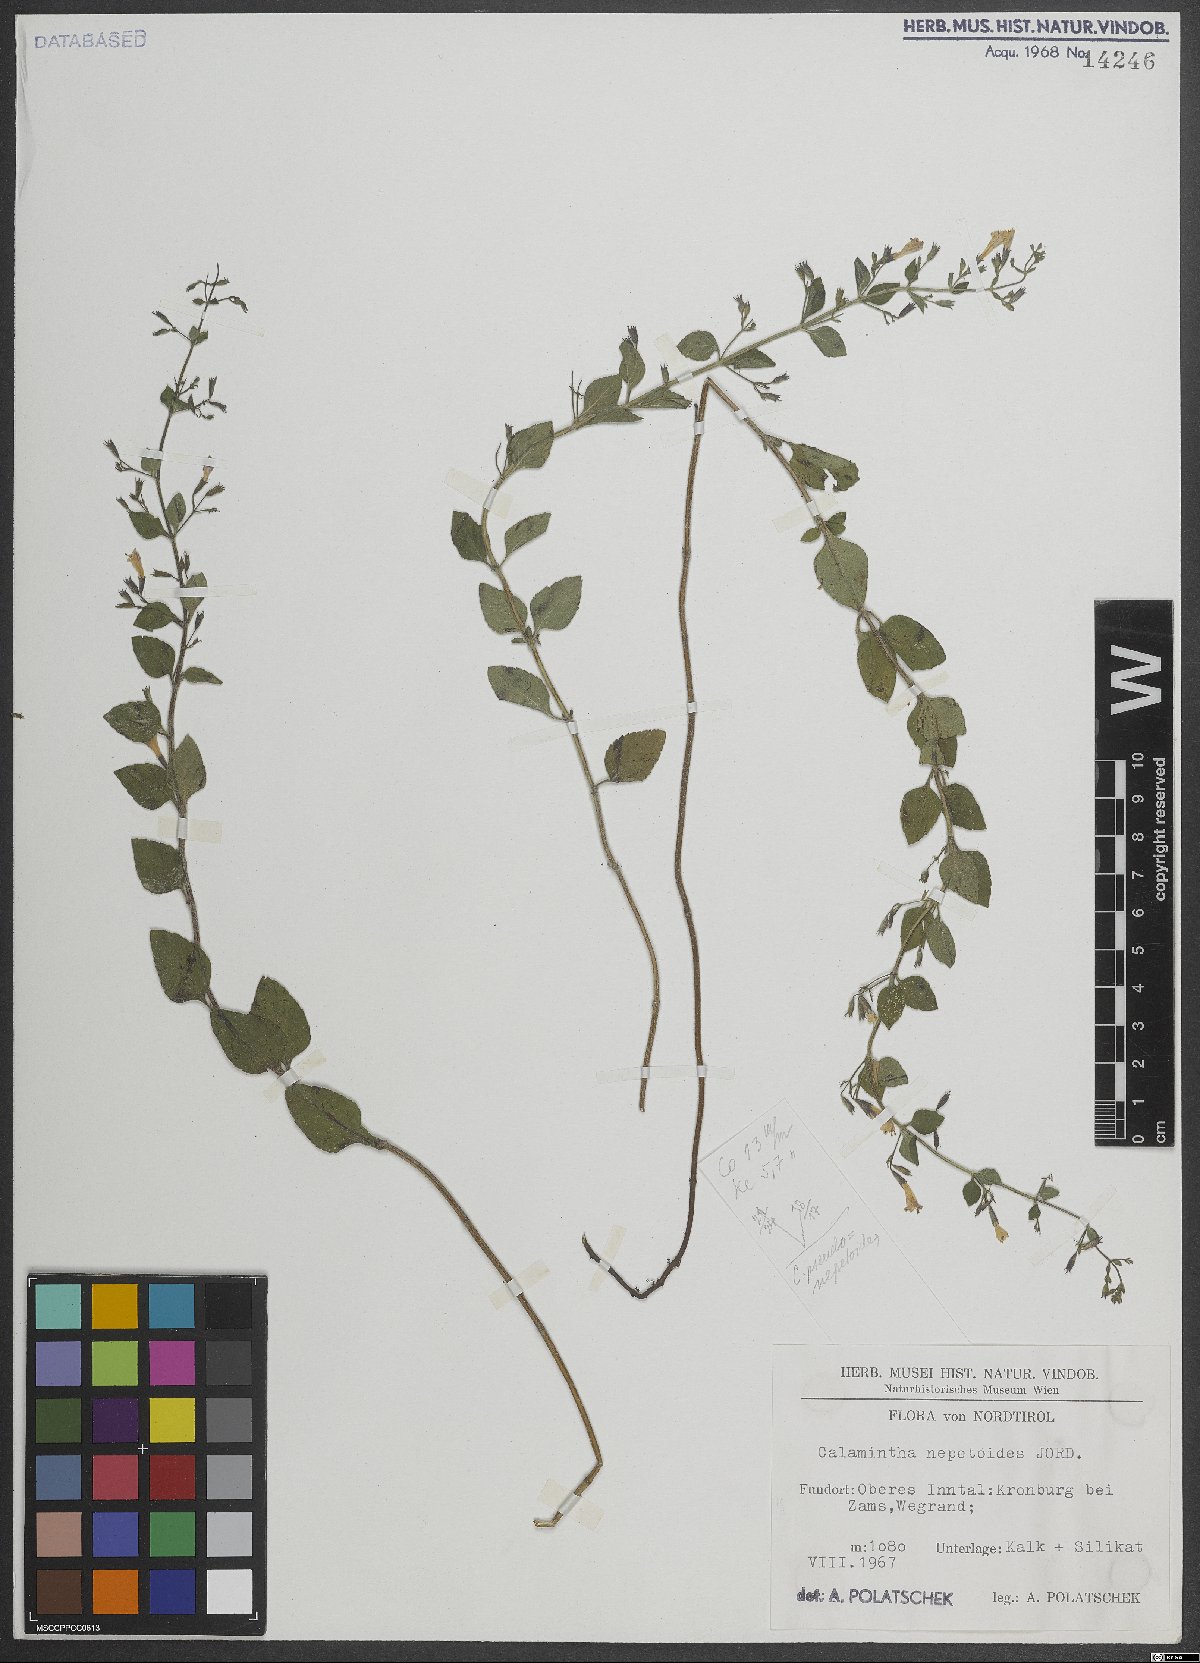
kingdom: Plantae
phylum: Tracheophyta
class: Magnoliopsida
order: Lamiales
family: Lamiaceae
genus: Clinopodium
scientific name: Clinopodium nepeta
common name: Lesser calamint
